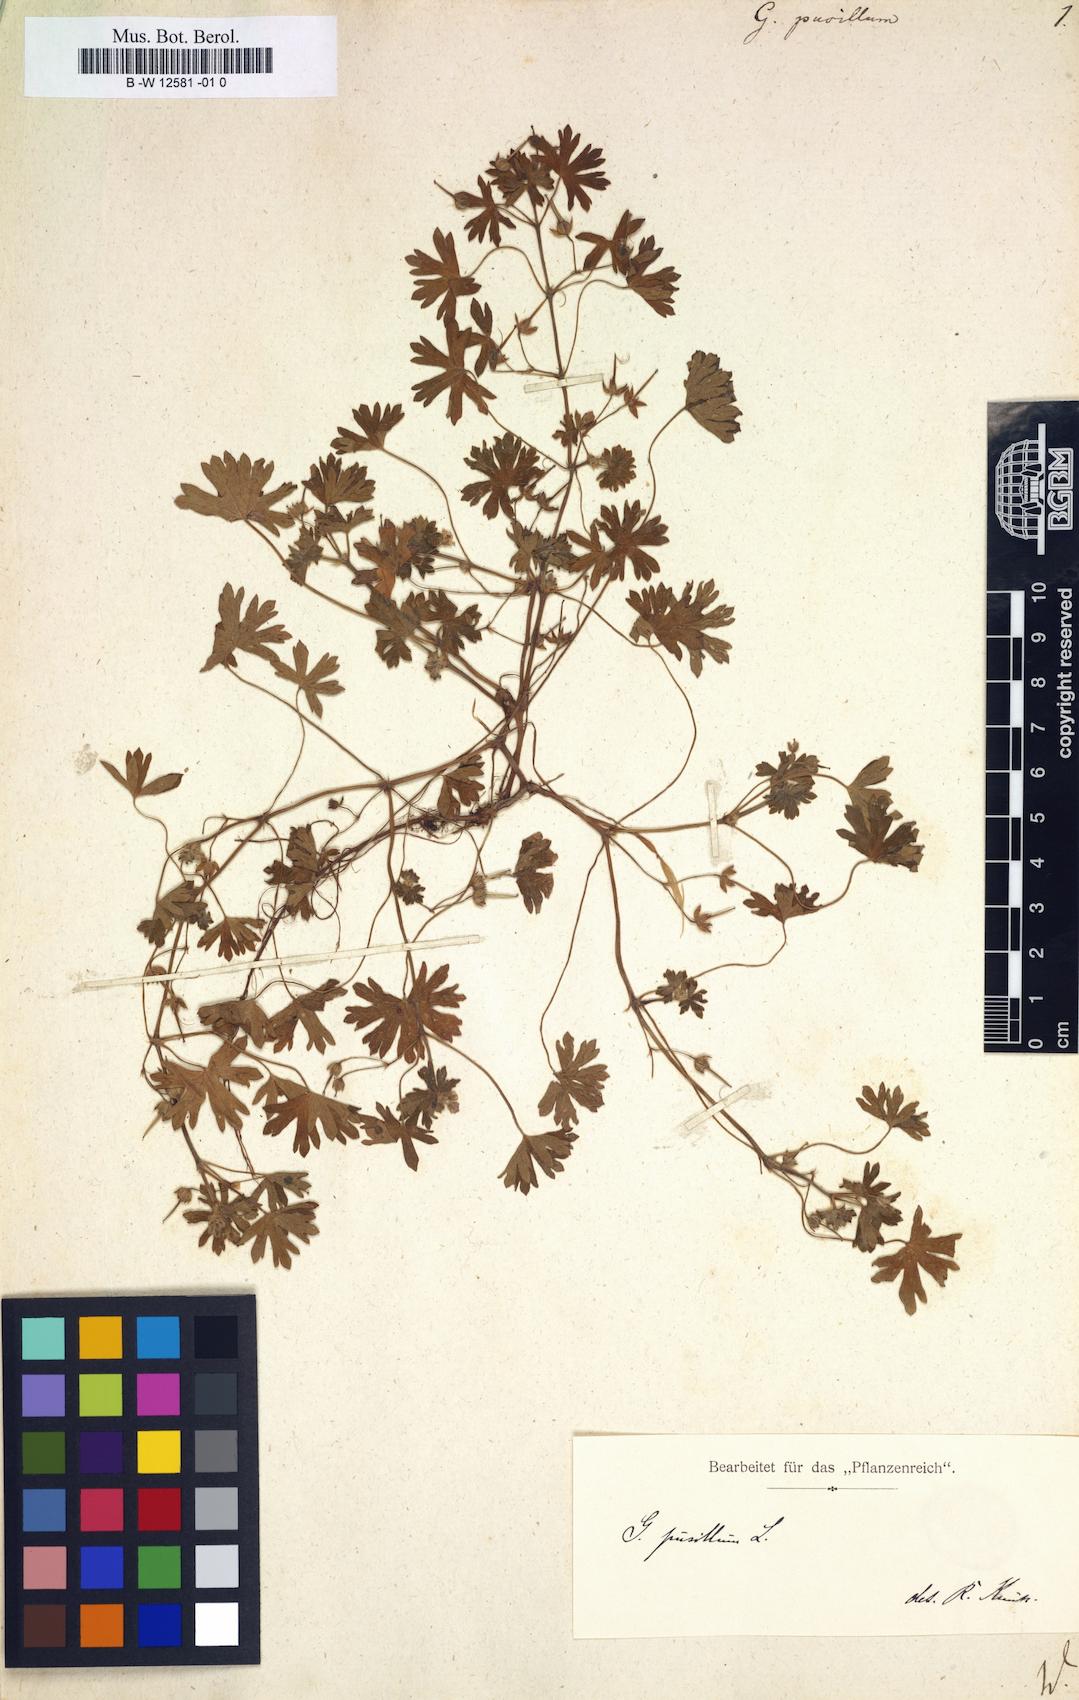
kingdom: Plantae
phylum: Tracheophyta
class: Magnoliopsida
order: Geraniales
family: Geraniaceae
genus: Geranium
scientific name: Geranium pusillum
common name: Small geranium
